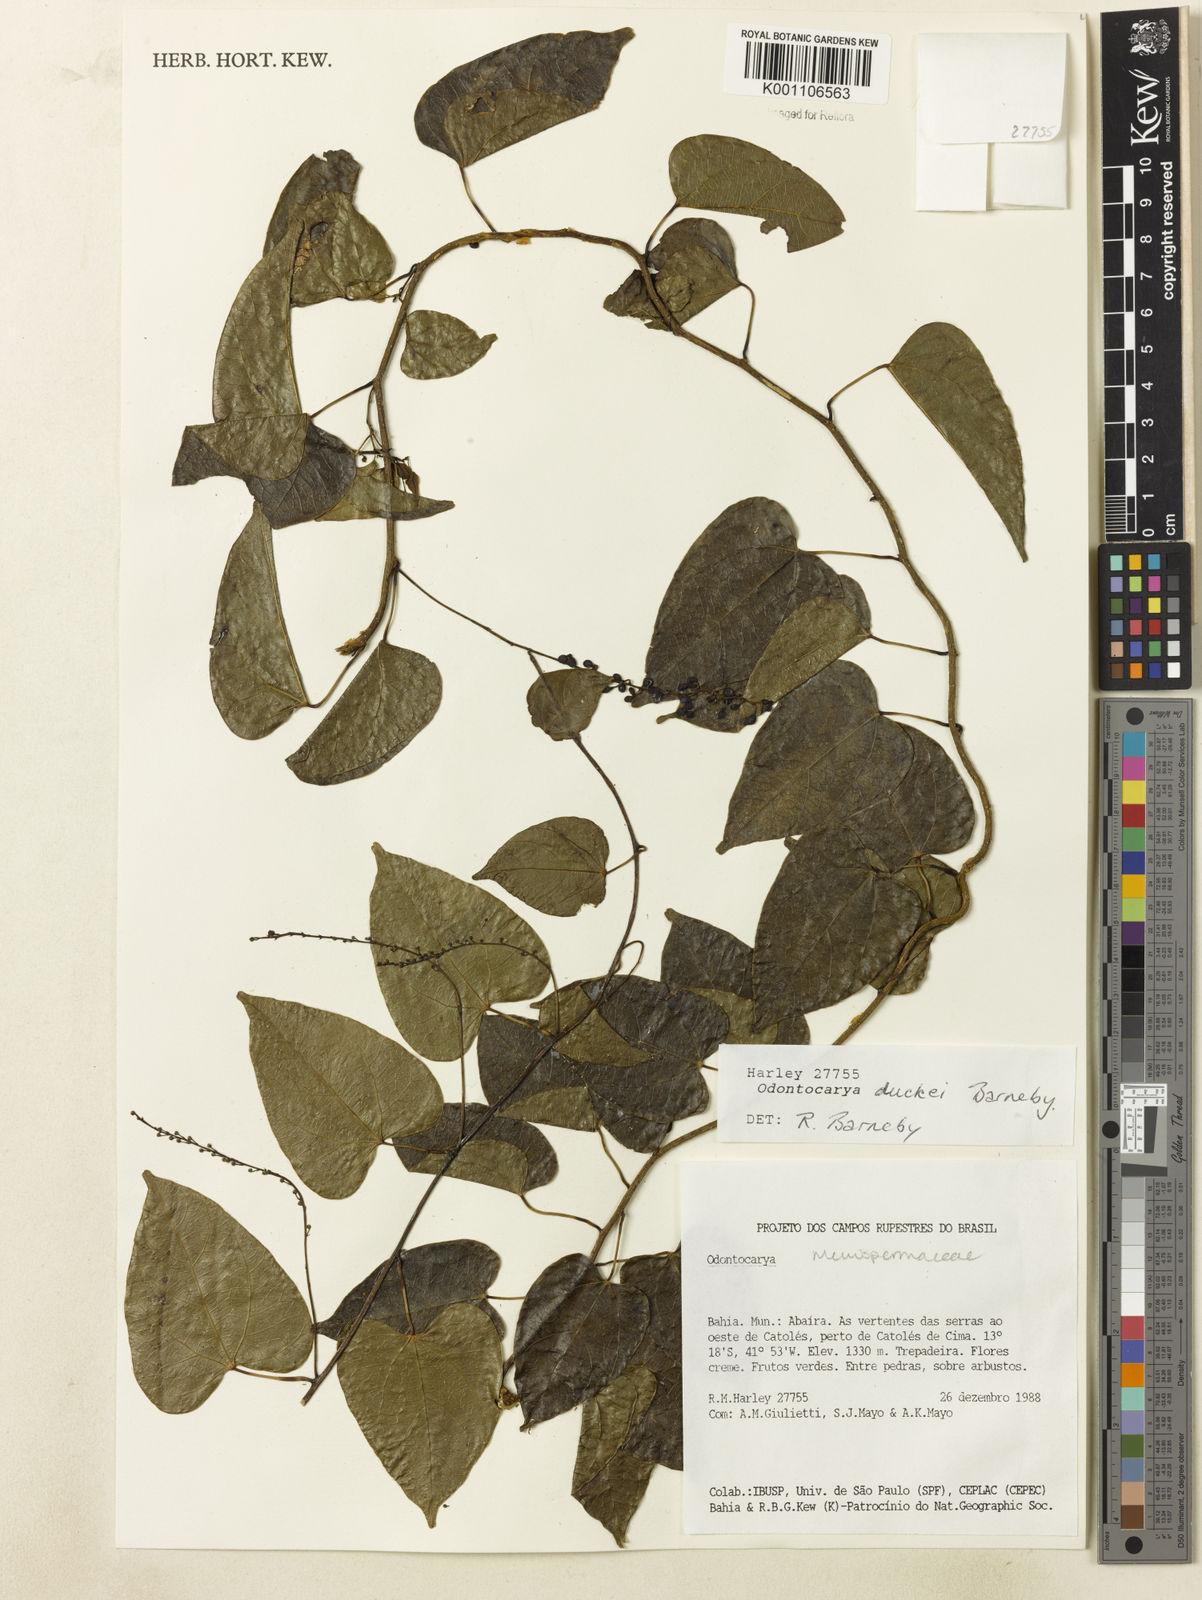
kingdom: Plantae
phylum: Tracheophyta
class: Magnoliopsida
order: Ranunculales
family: Menispermaceae
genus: Odontocarya
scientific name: Odontocarya duckei
